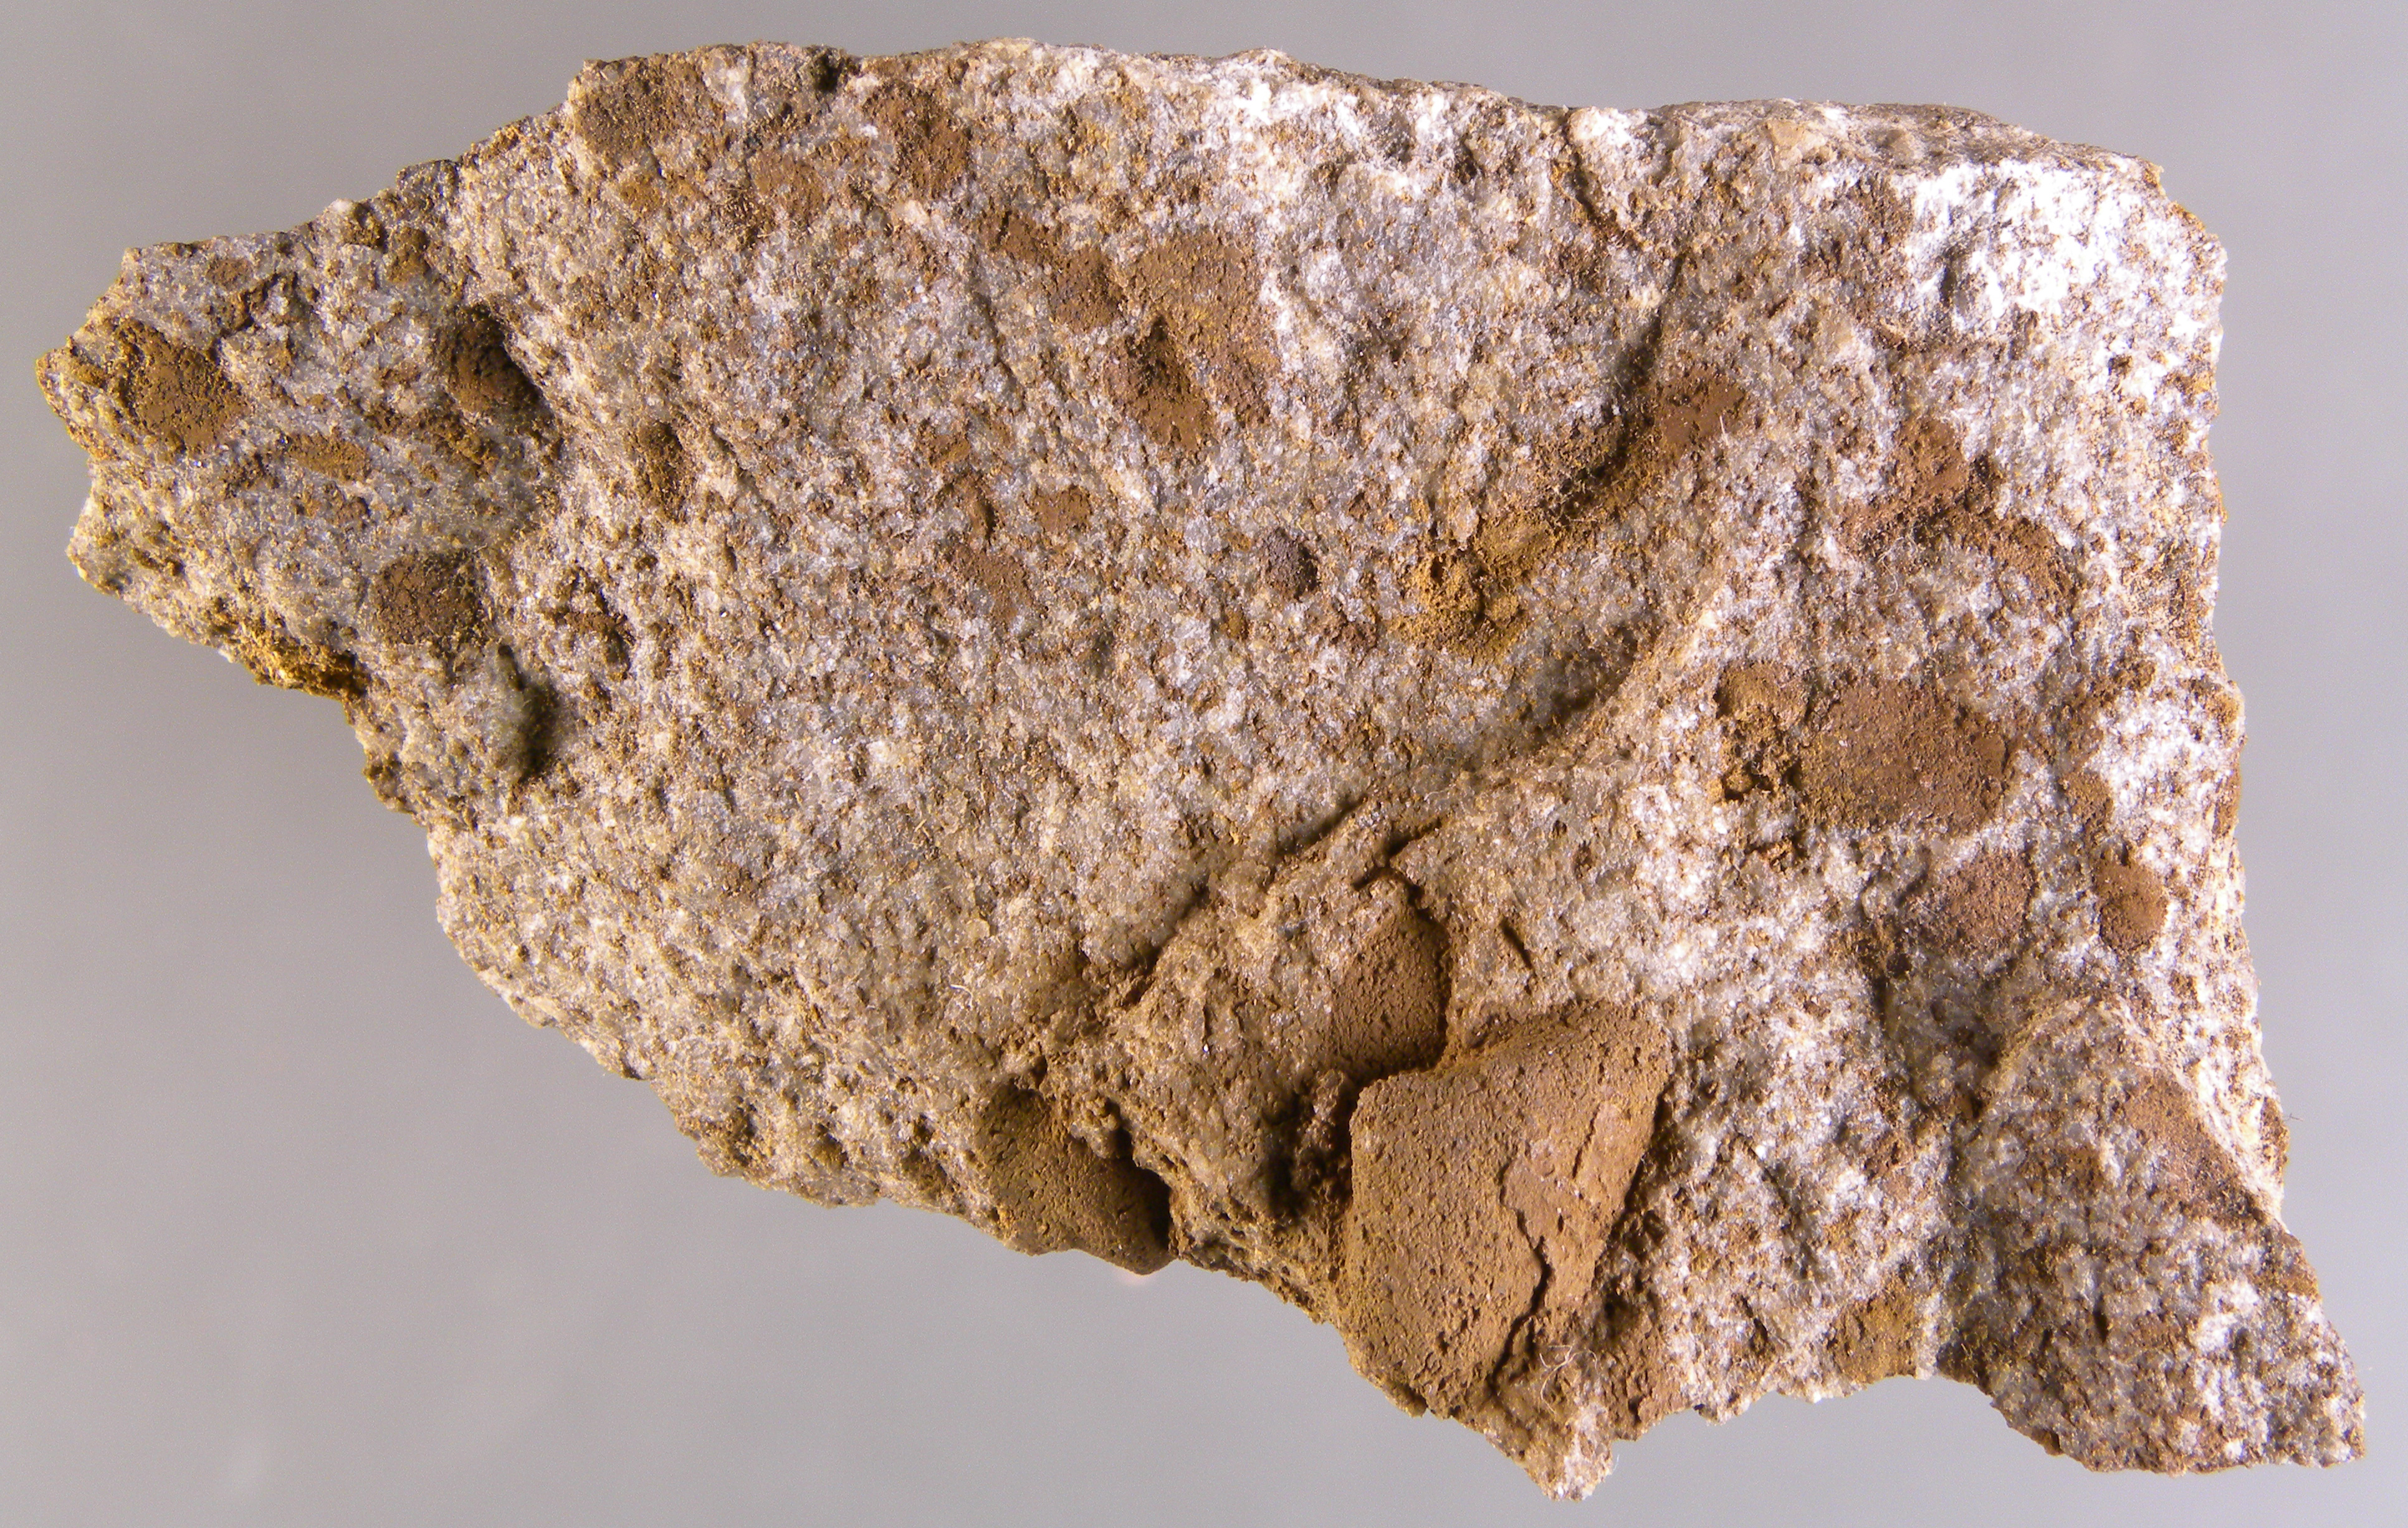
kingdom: Animalia
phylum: Mollusca
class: Bivalvia
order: Nuculanida
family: Nuculanidae
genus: Phestia
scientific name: Phestia
